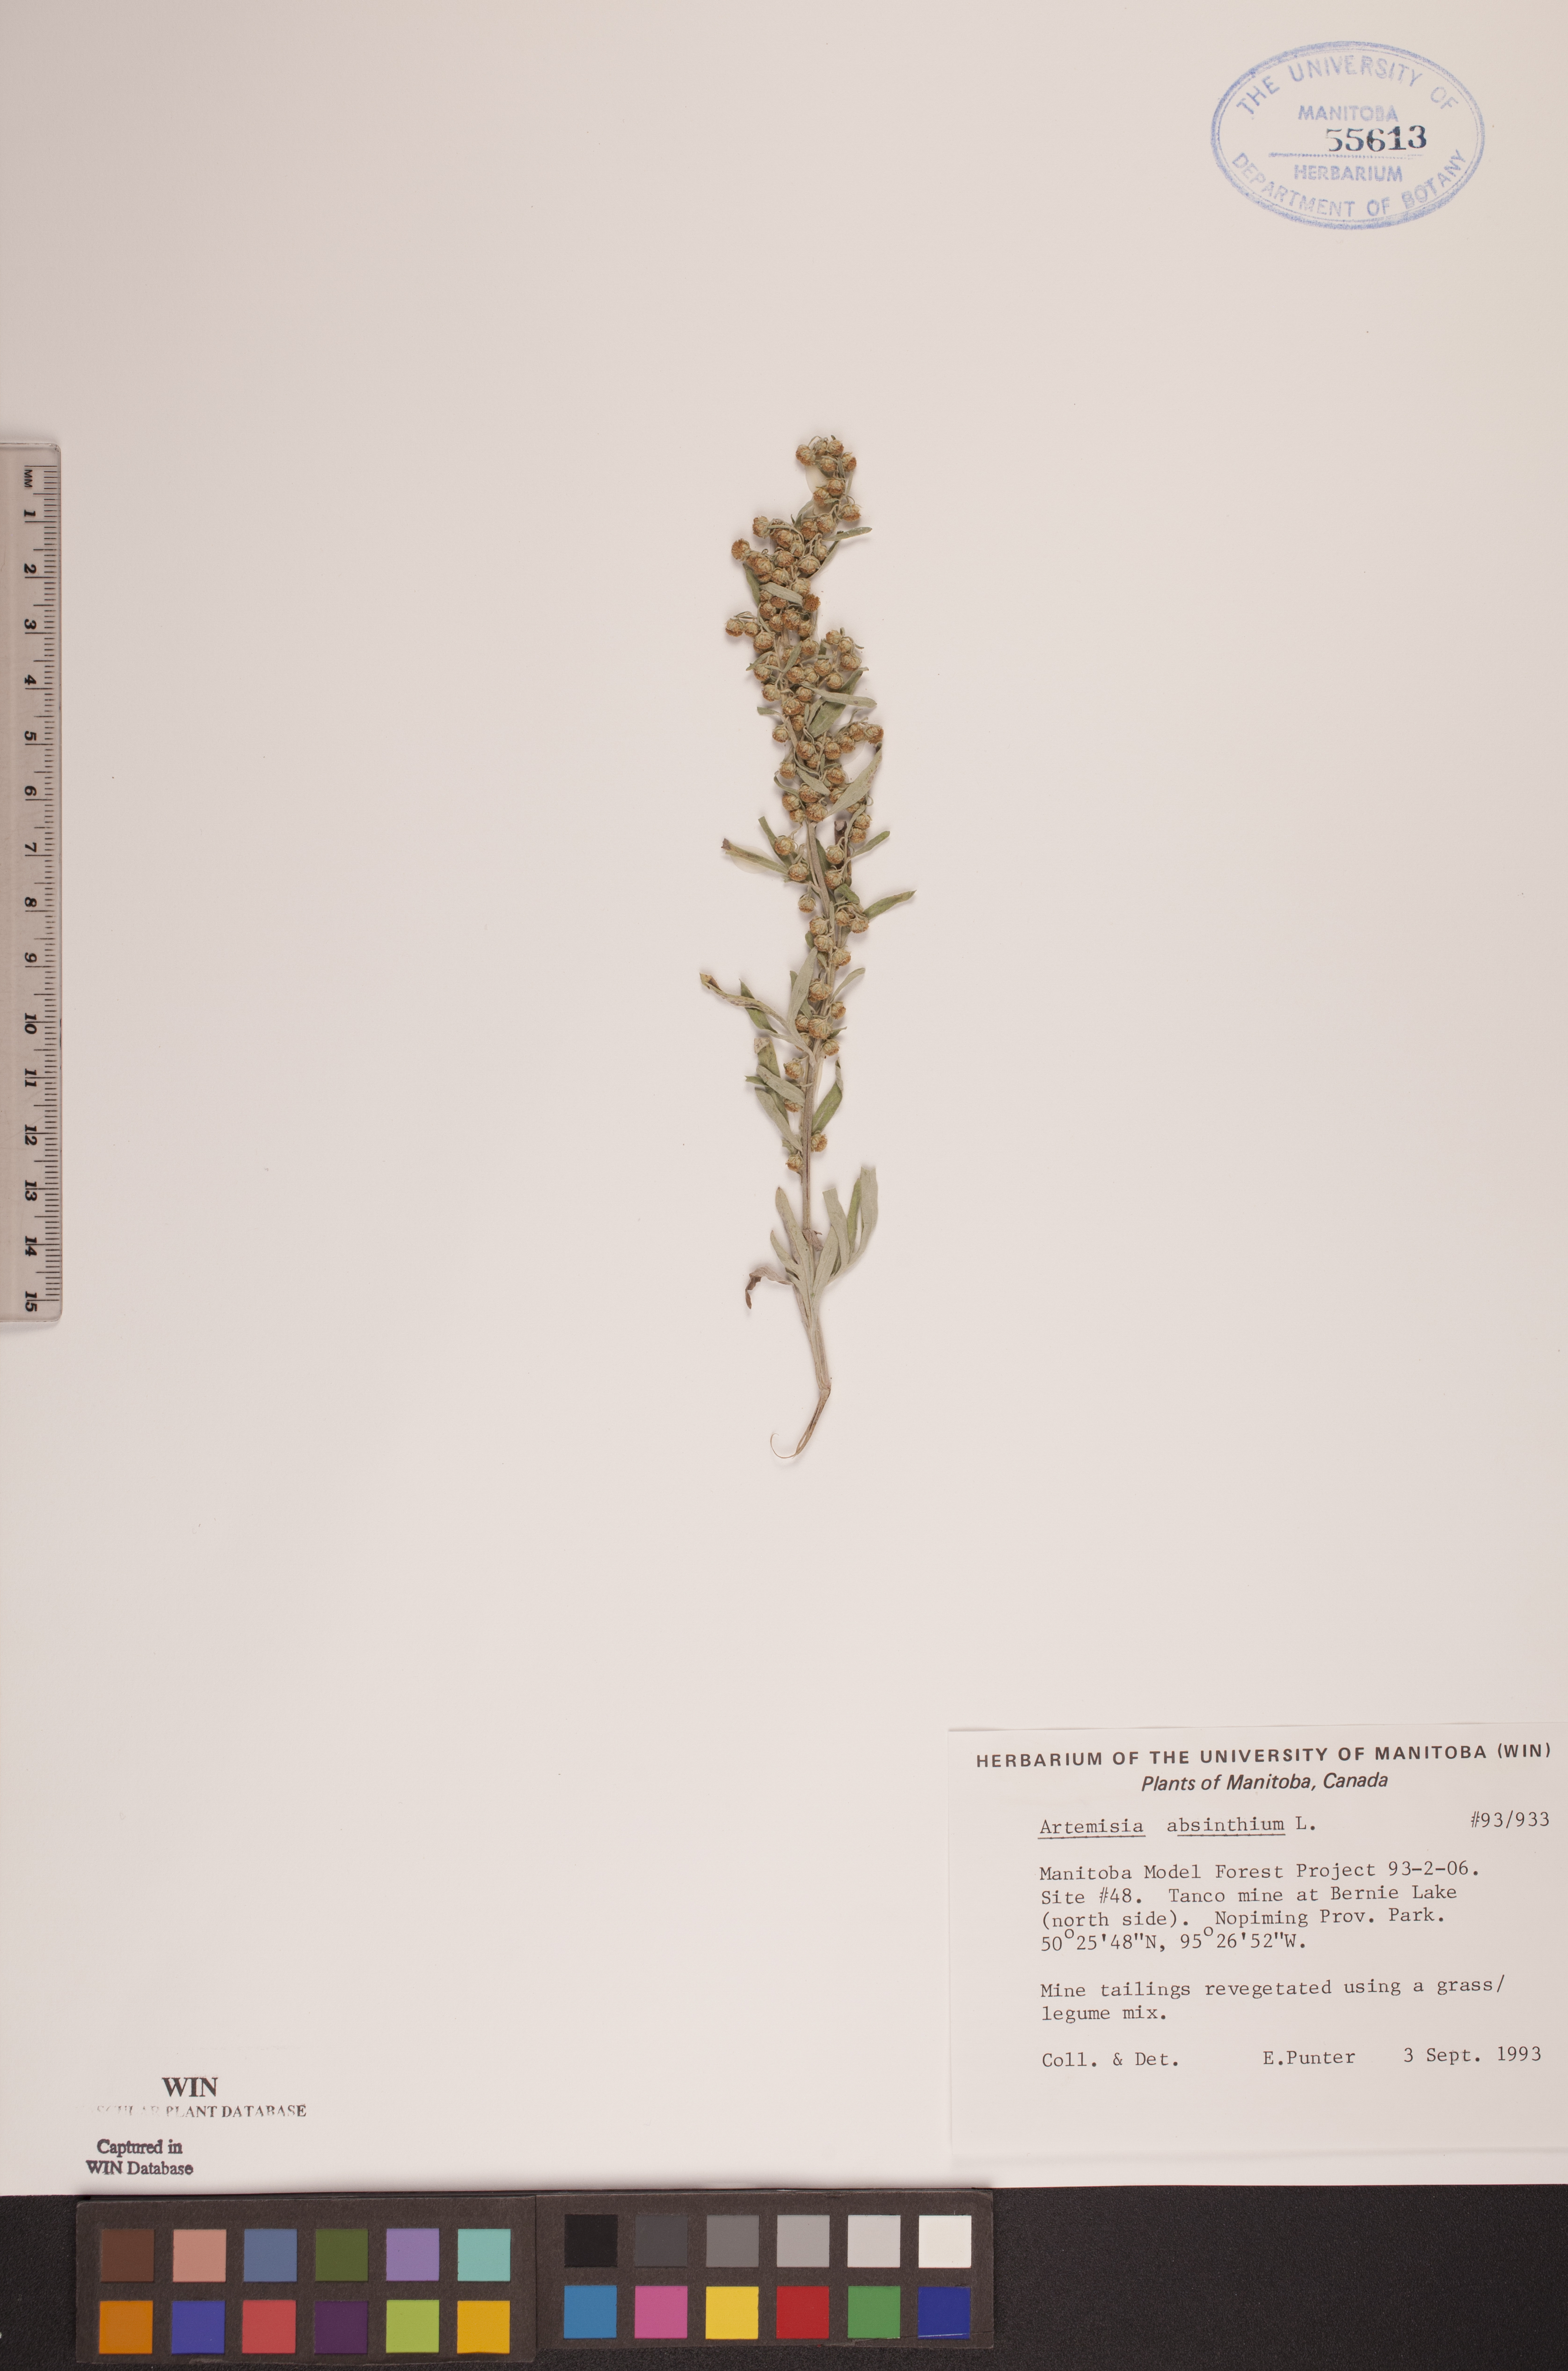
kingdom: Plantae
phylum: Tracheophyta
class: Magnoliopsida
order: Asterales
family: Asteraceae
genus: Artemisia
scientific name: Artemisia absinthium
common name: Wormwood
